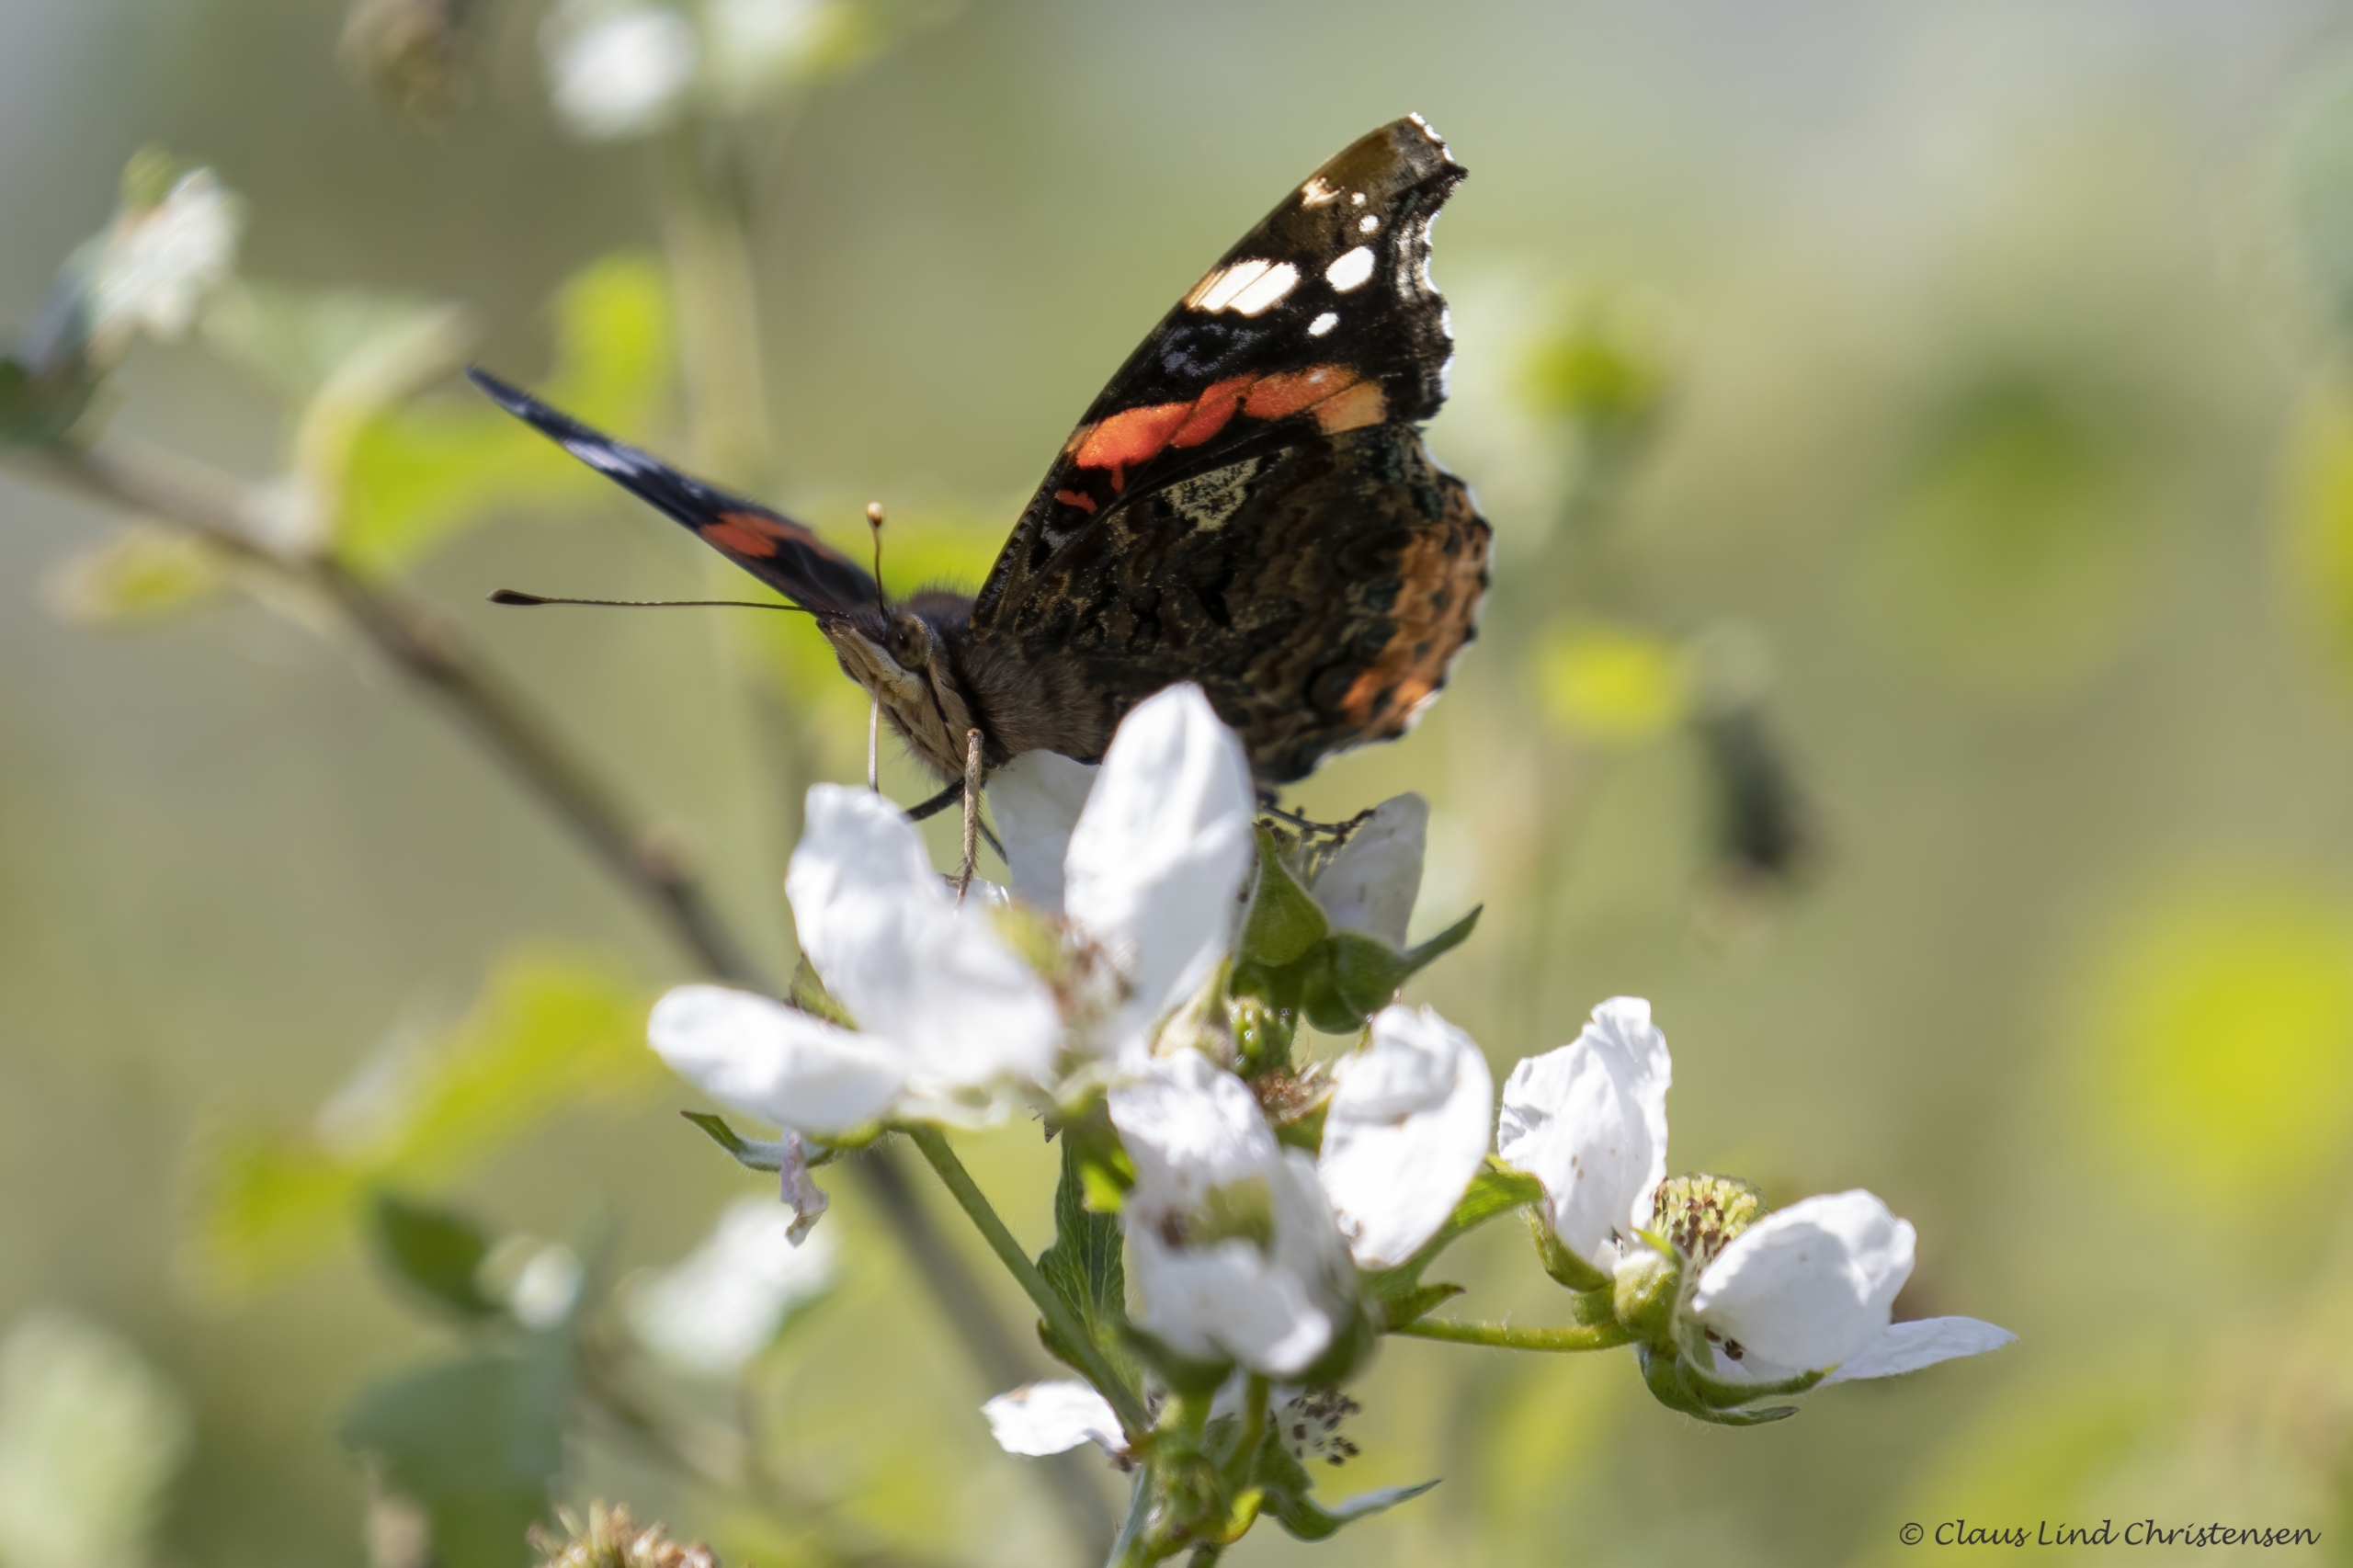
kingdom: Animalia
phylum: Arthropoda
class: Insecta
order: Lepidoptera
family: Nymphalidae
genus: Vanessa
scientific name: Vanessa atalanta
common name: Admiral
